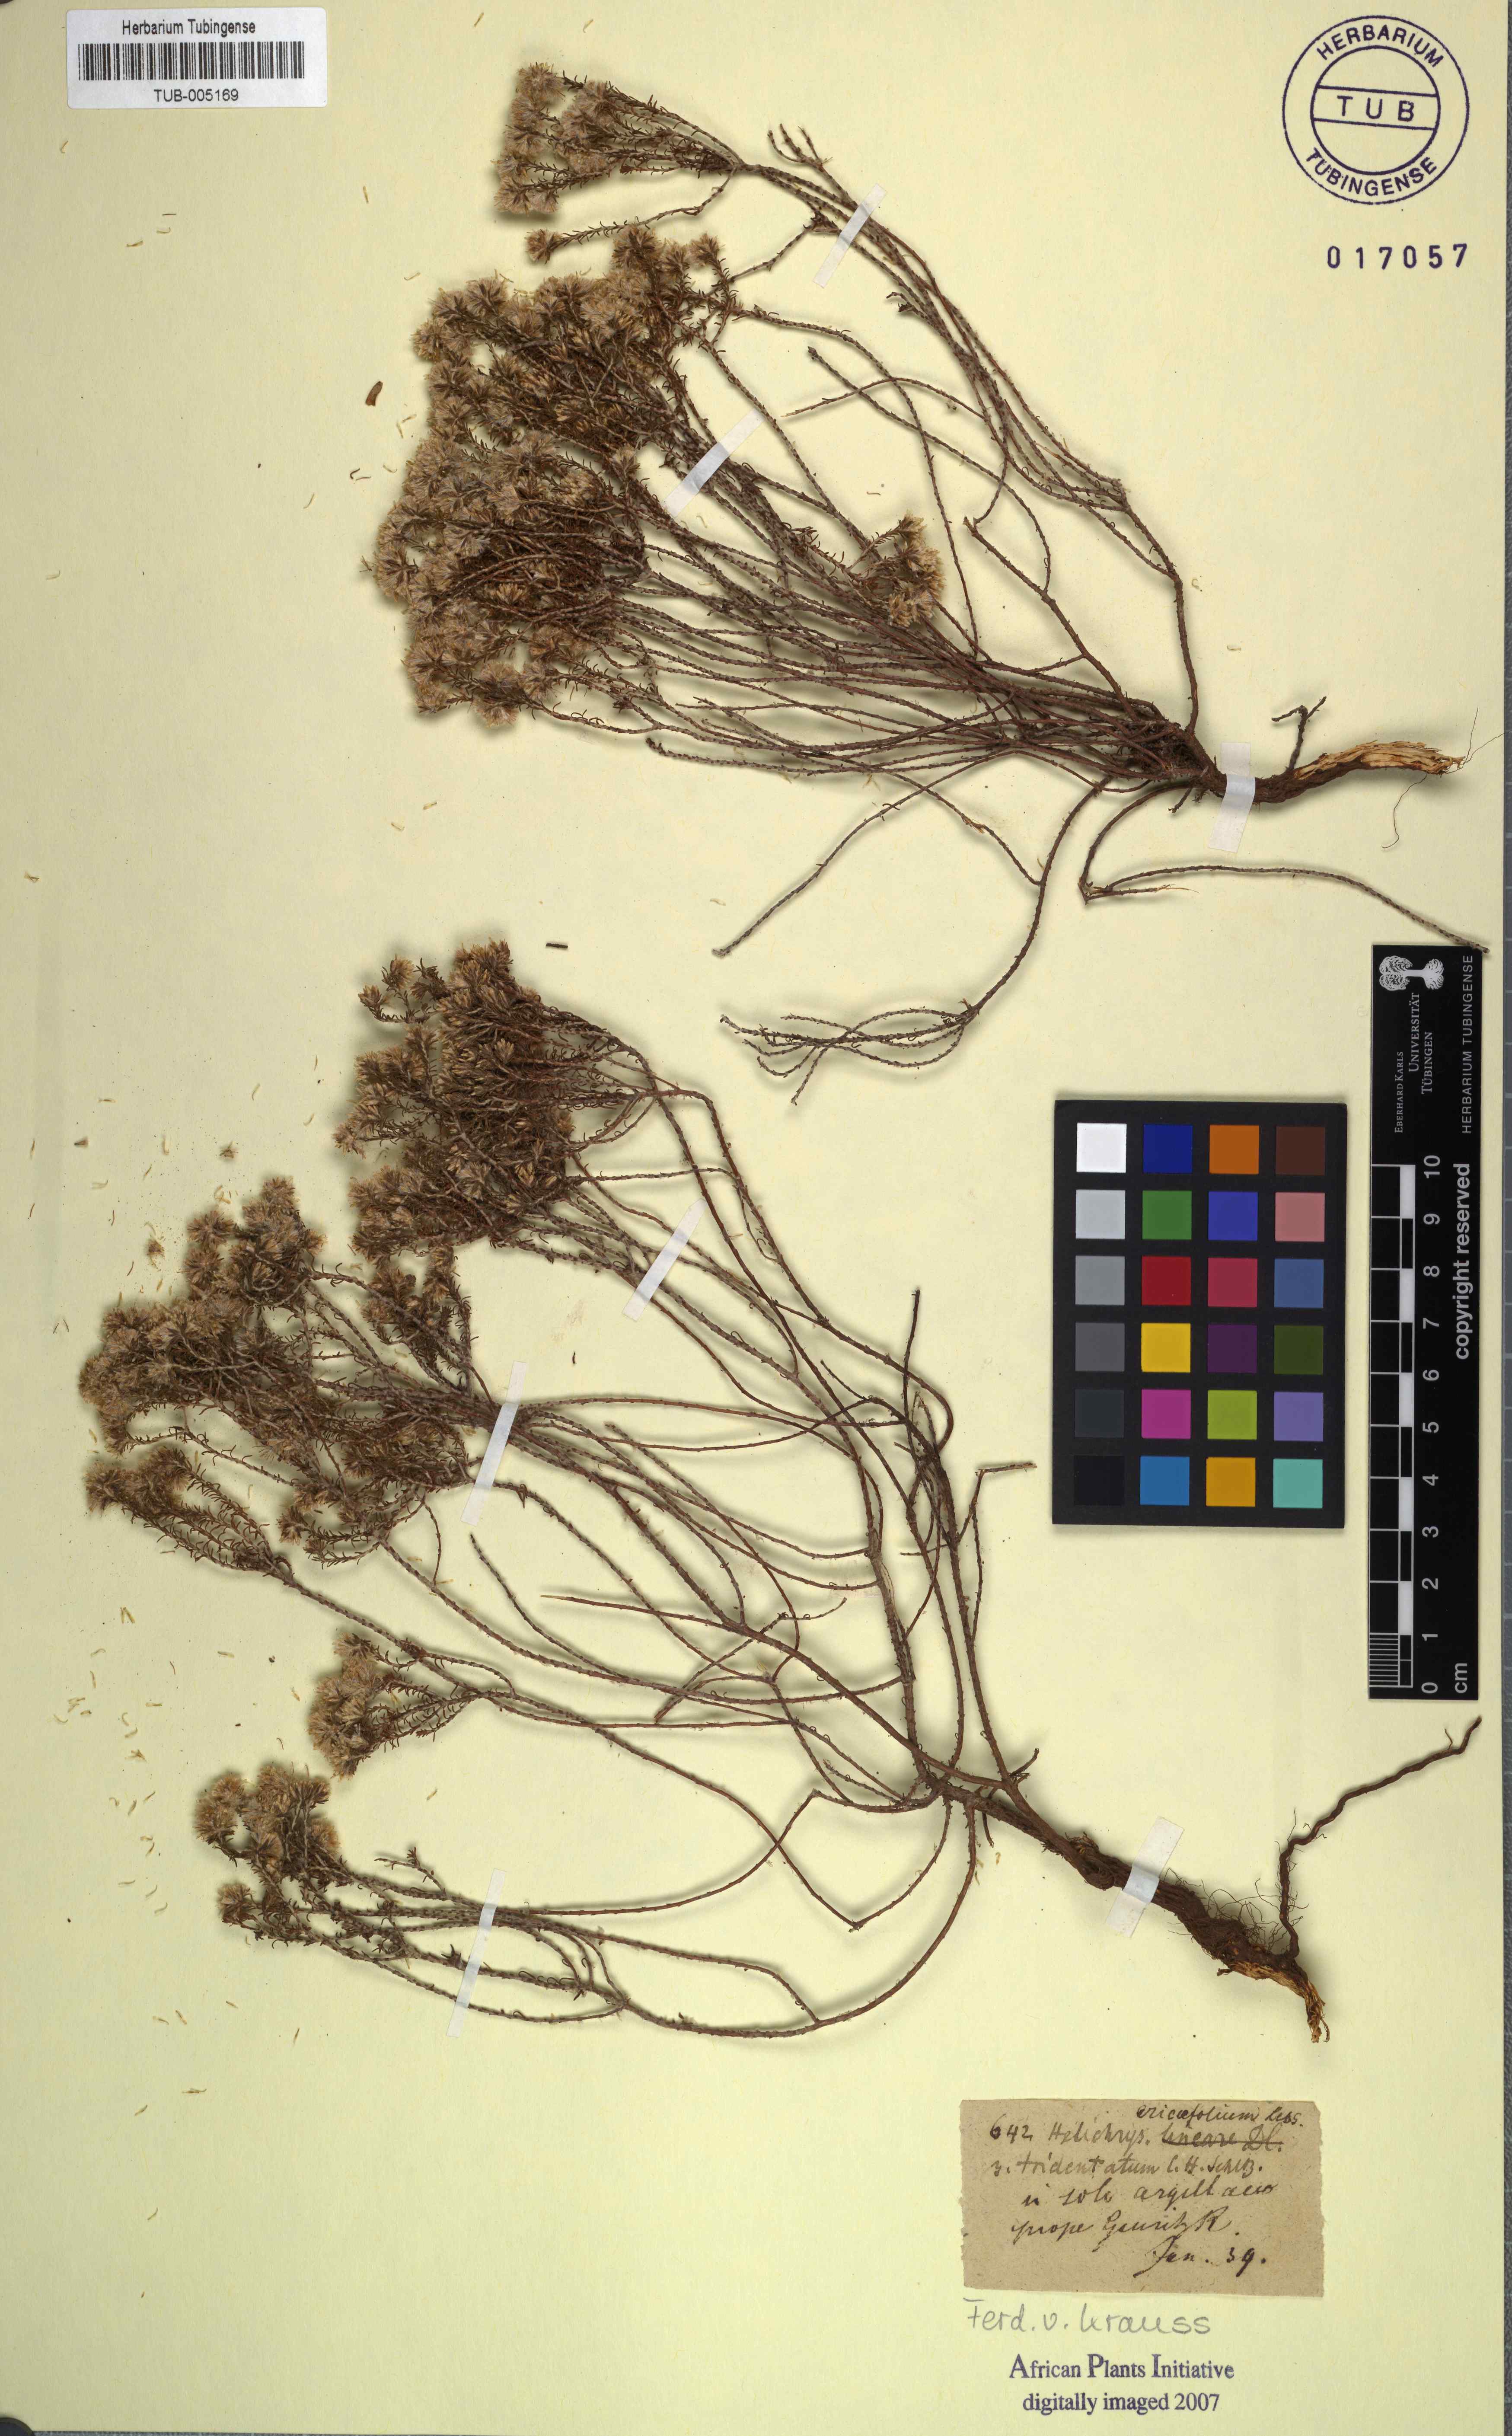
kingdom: Plantae
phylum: Tracheophyta
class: Magnoliopsida
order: Asterales
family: Asteraceae
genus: Helichrysum
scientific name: Helichrysum asperum
